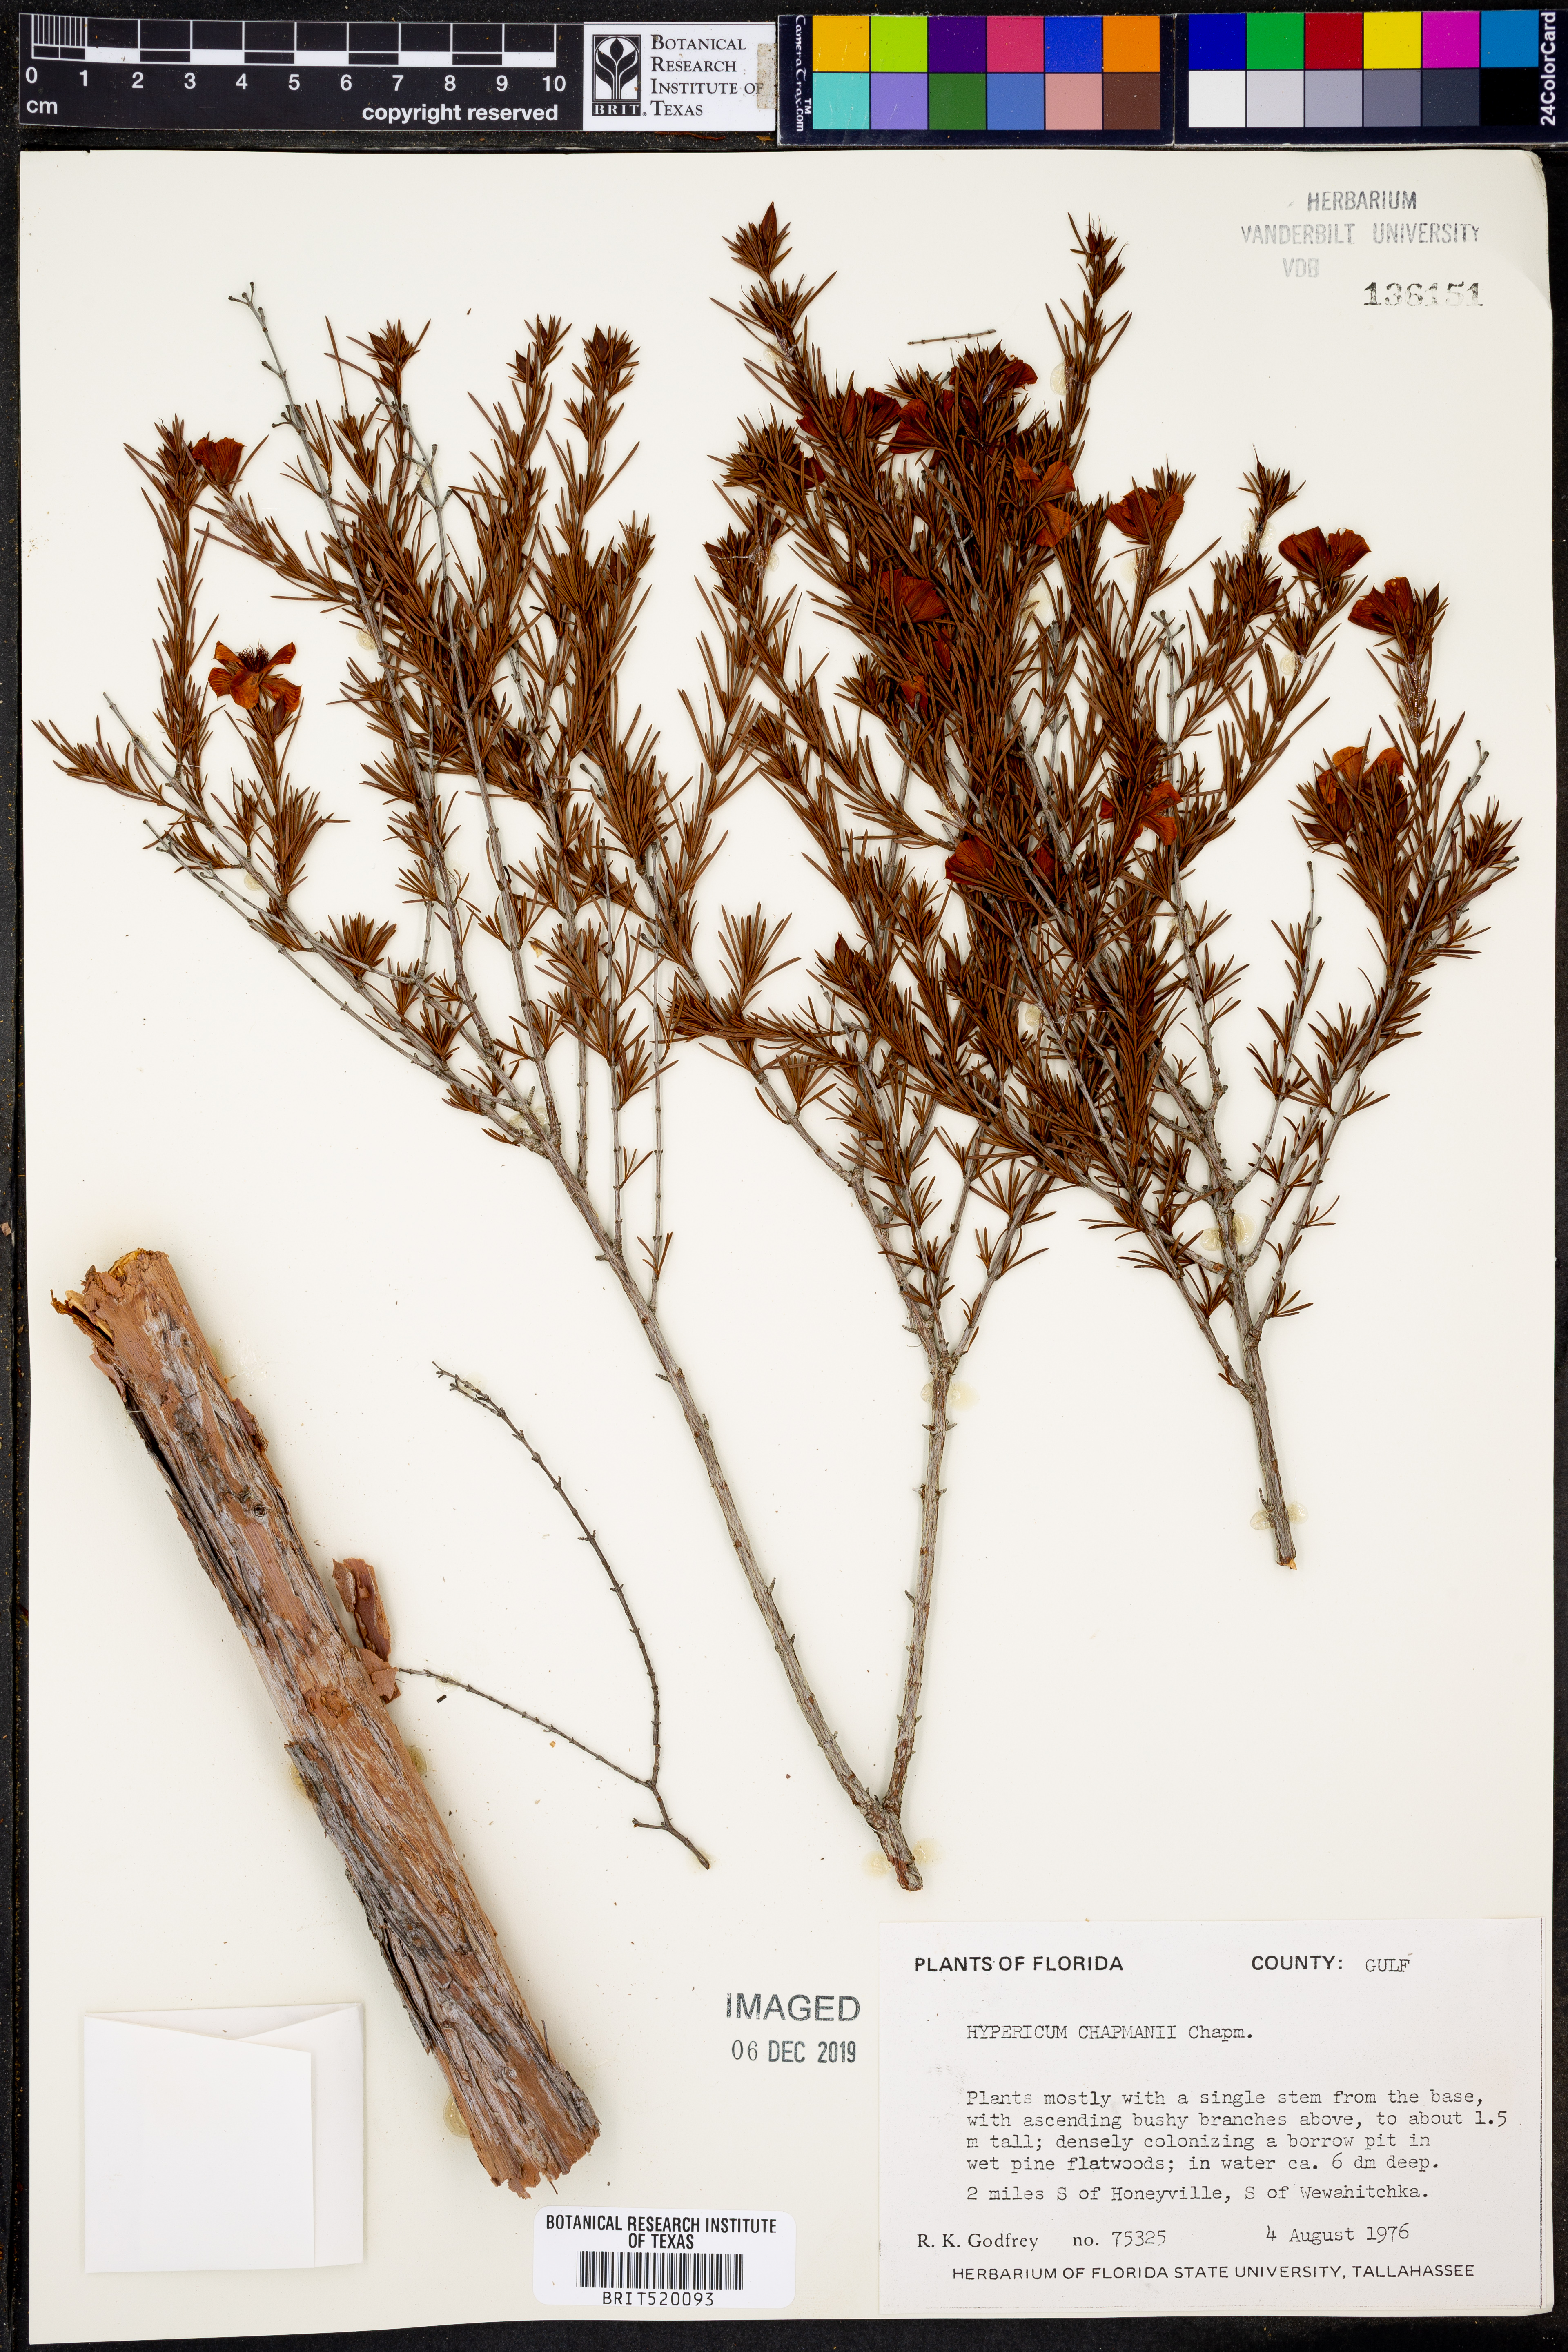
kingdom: Plantae
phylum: Tracheophyta
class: Magnoliopsida
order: Malpighiales
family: Hypericaceae
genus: Hypericum
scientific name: Hypericum chapmanii
